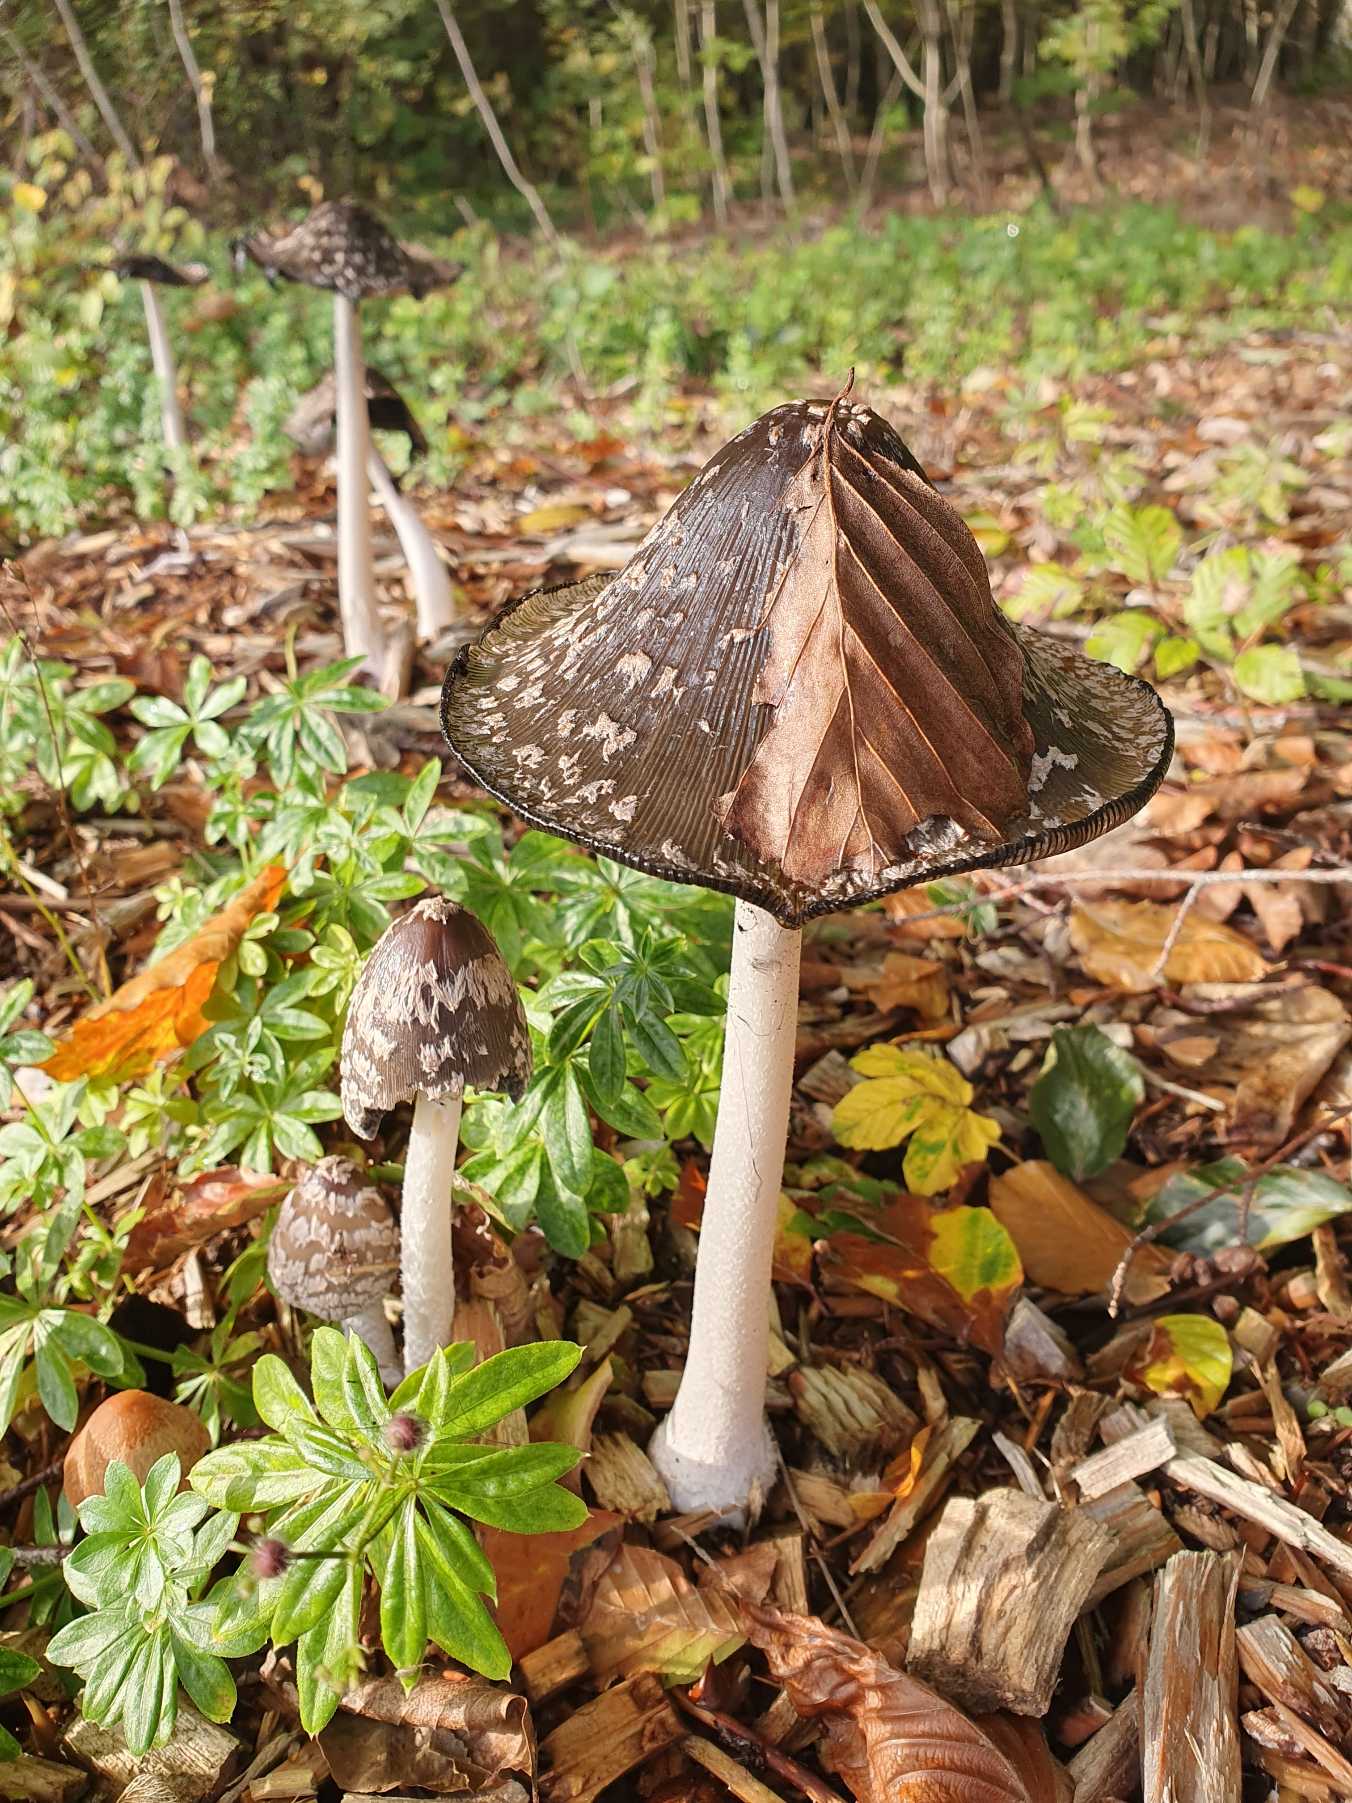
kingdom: Fungi
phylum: Basidiomycota
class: Agaricomycetes
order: Agaricales
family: Psathyrellaceae
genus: Coprinopsis
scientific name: Coprinopsis picacea
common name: Skade-blækhat
